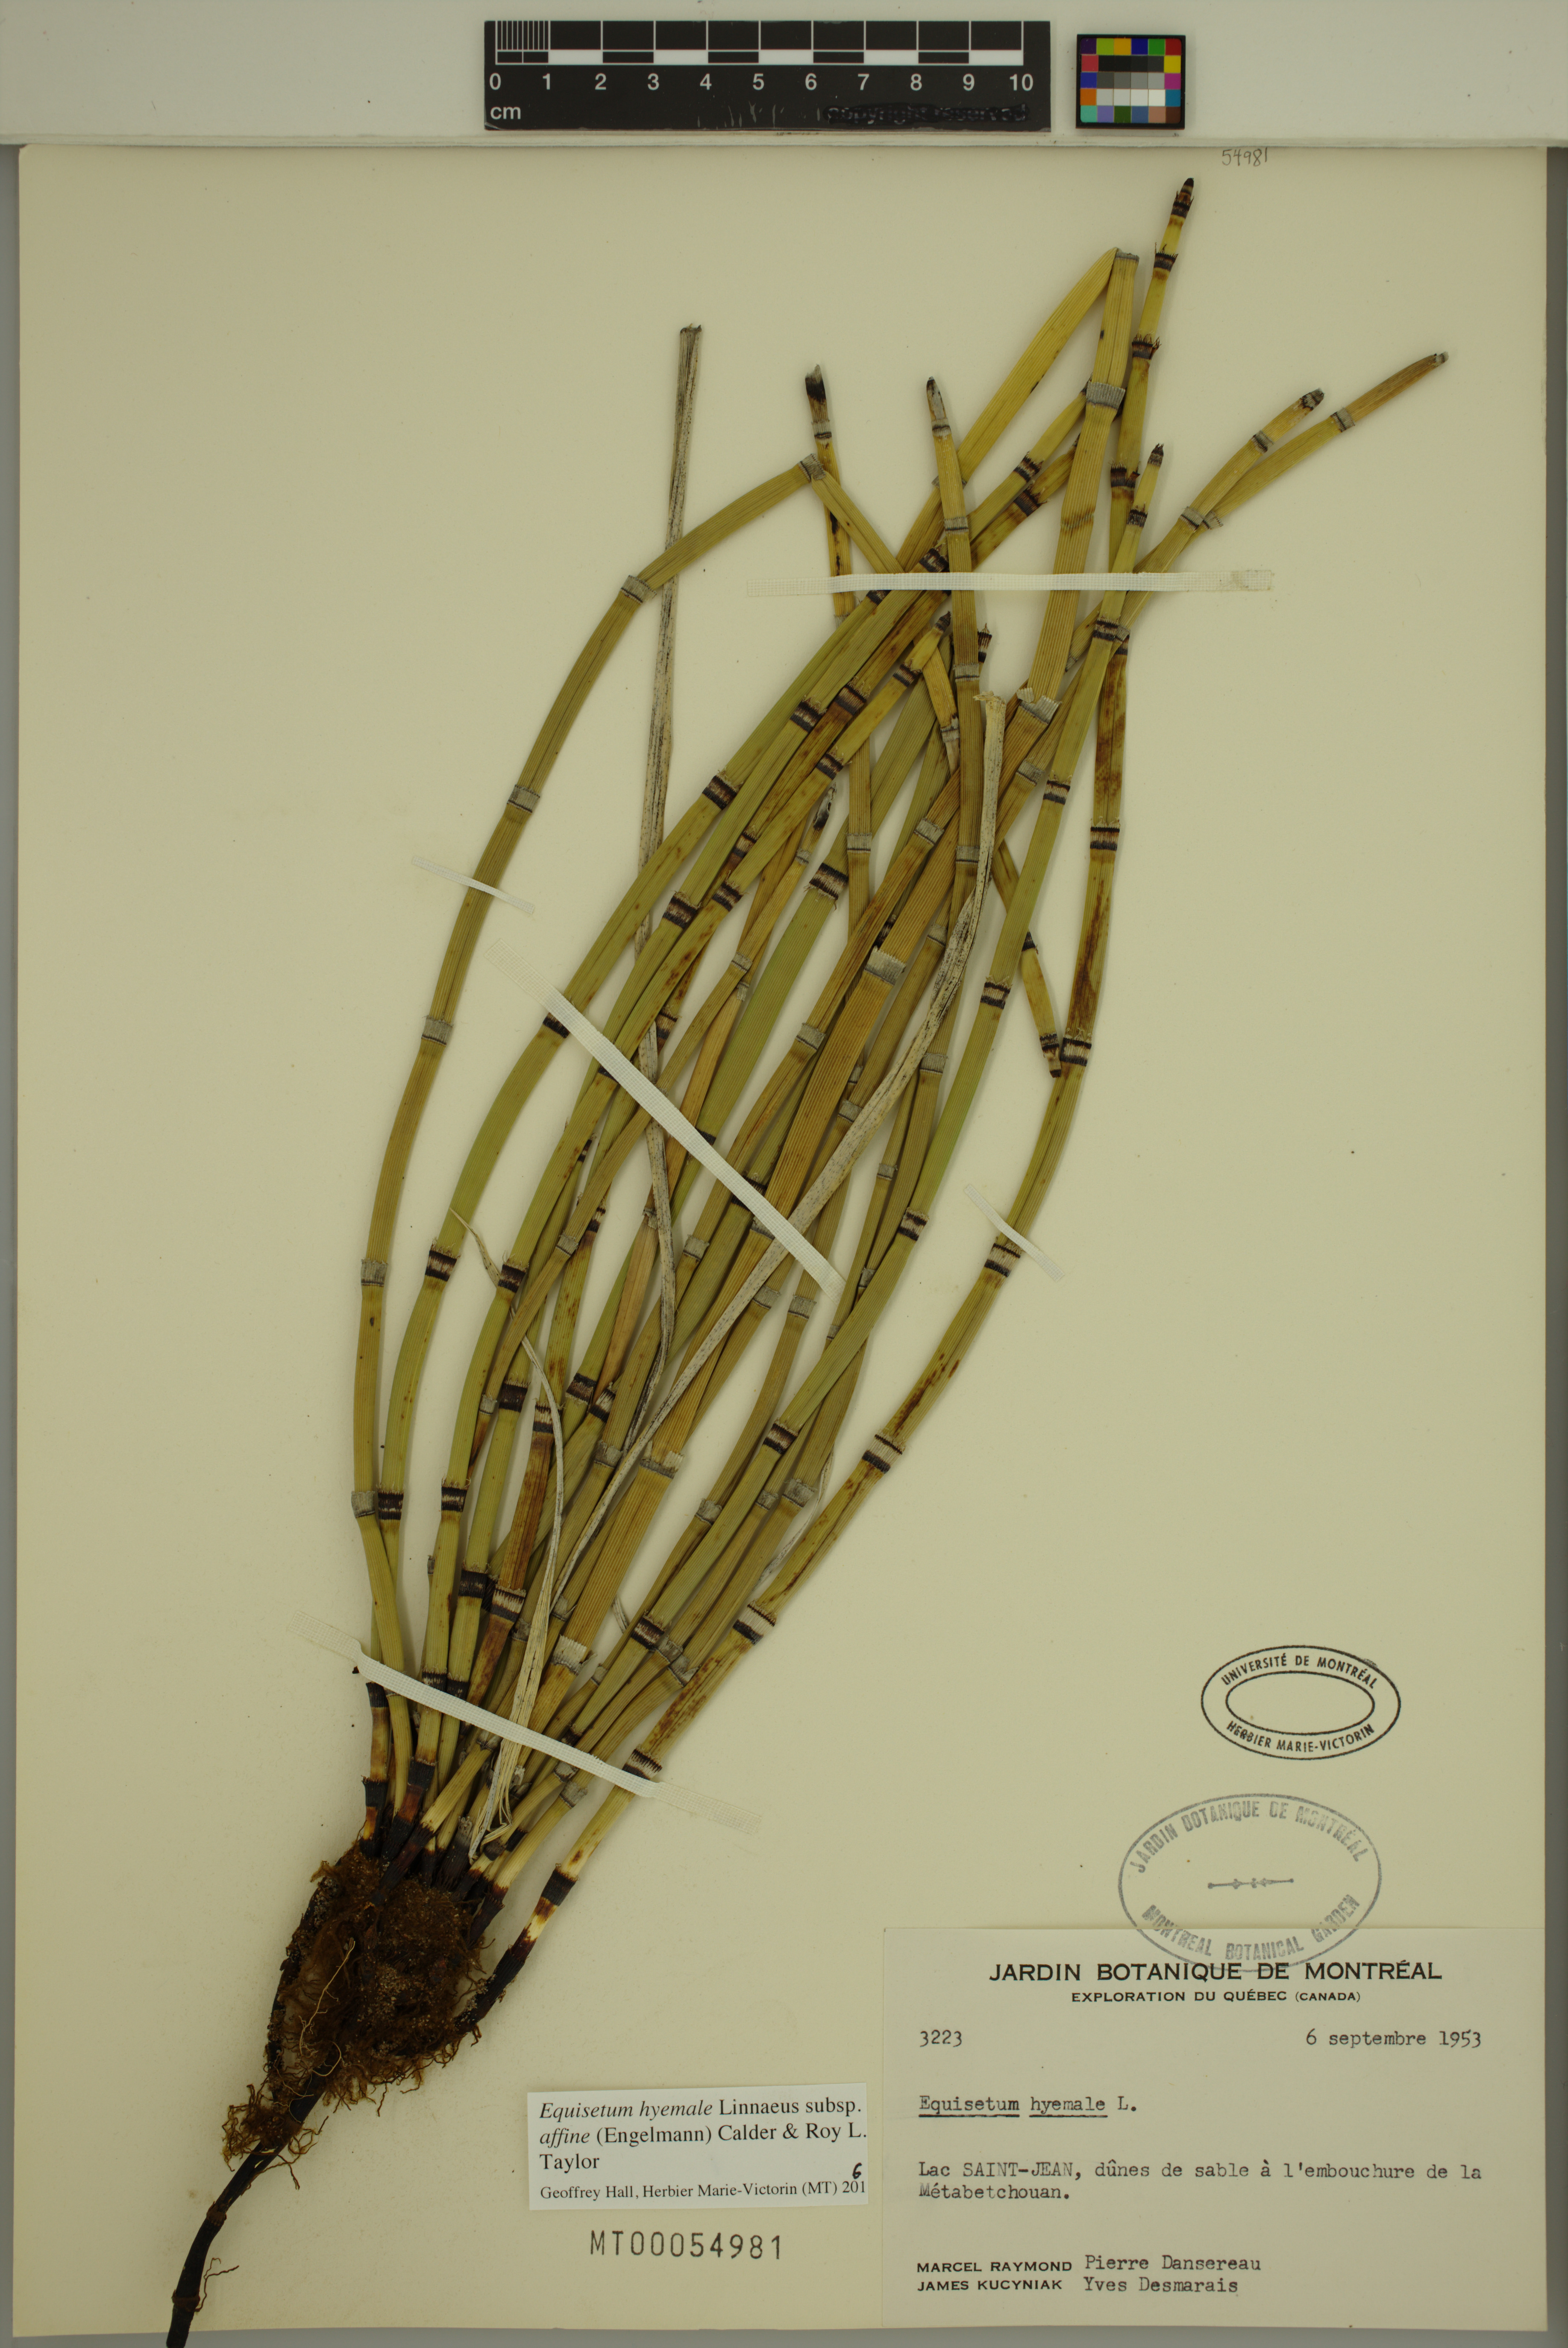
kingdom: Plantae
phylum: Tracheophyta
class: Polypodiopsida
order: Equisetales
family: Equisetaceae
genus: Equisetum
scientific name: Equisetum praealtum
